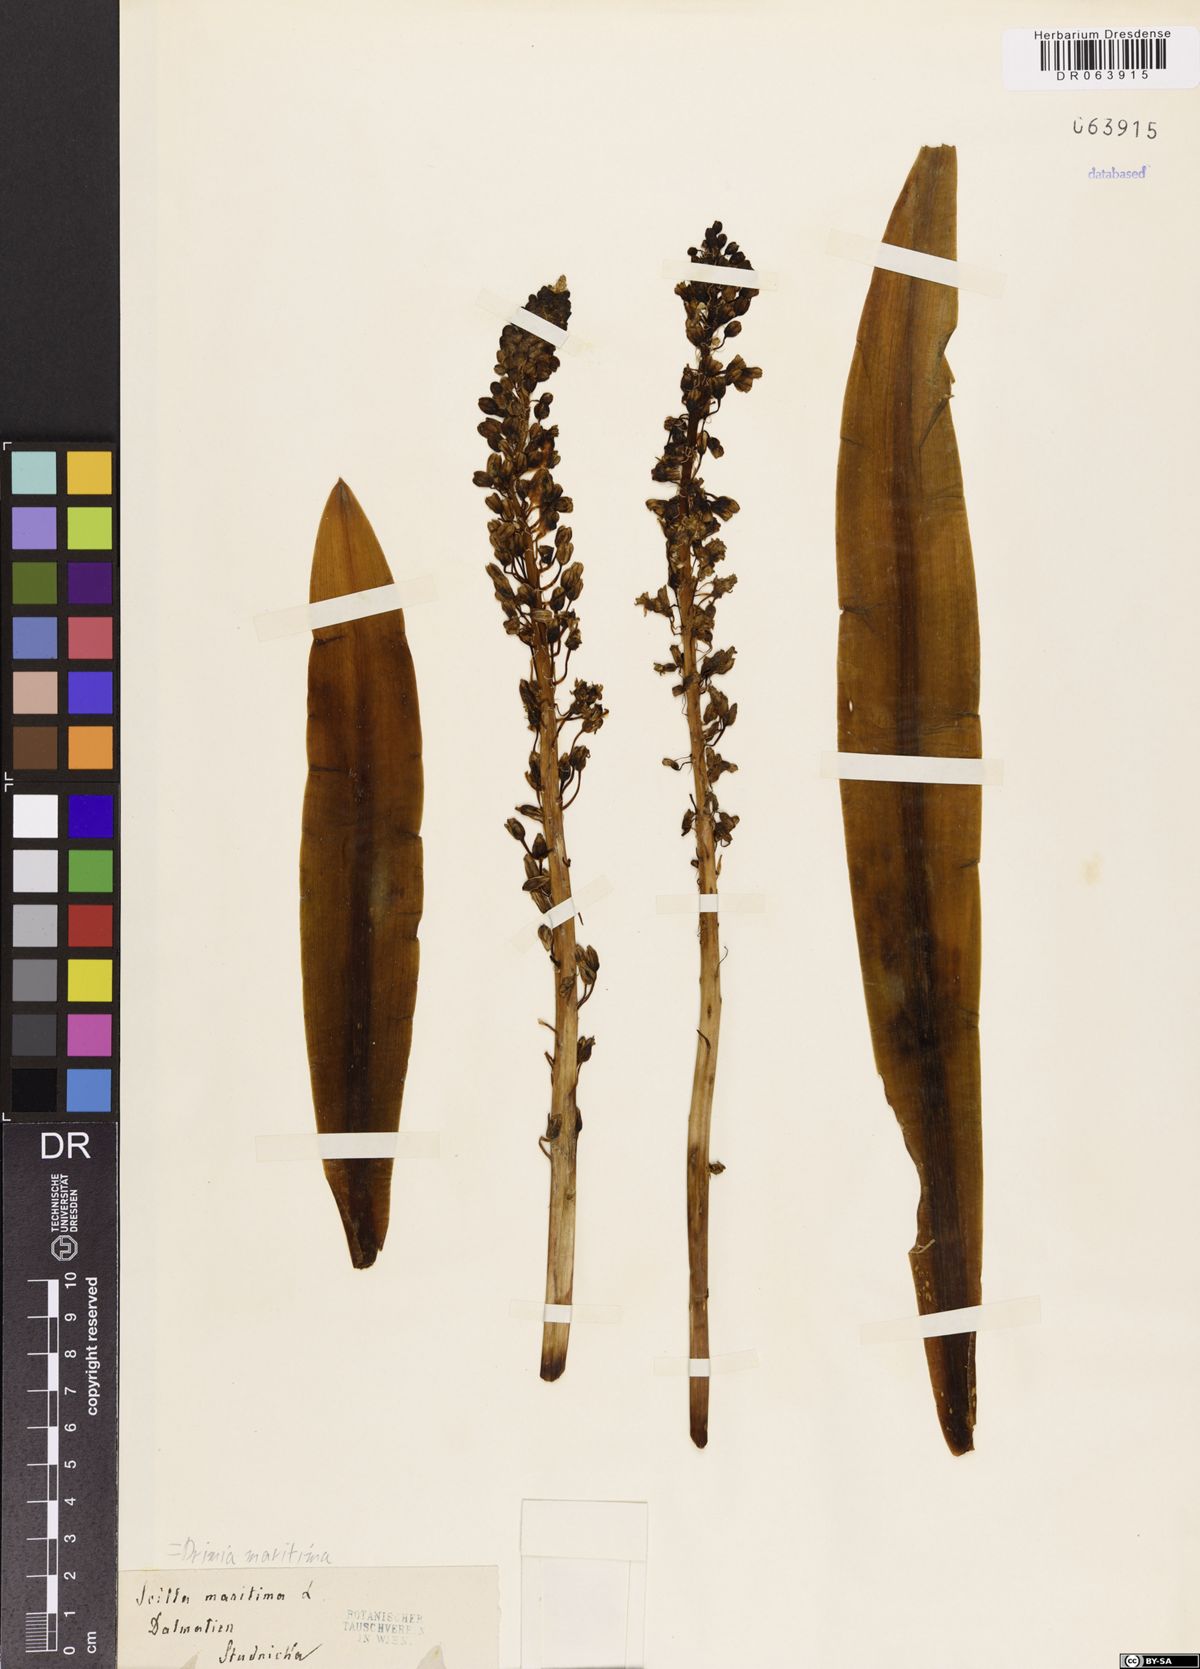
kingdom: Plantae
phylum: Tracheophyta
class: Liliopsida
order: Asparagales
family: Asparagaceae
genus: Drimia
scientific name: Drimia maritima
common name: Maritime squill
